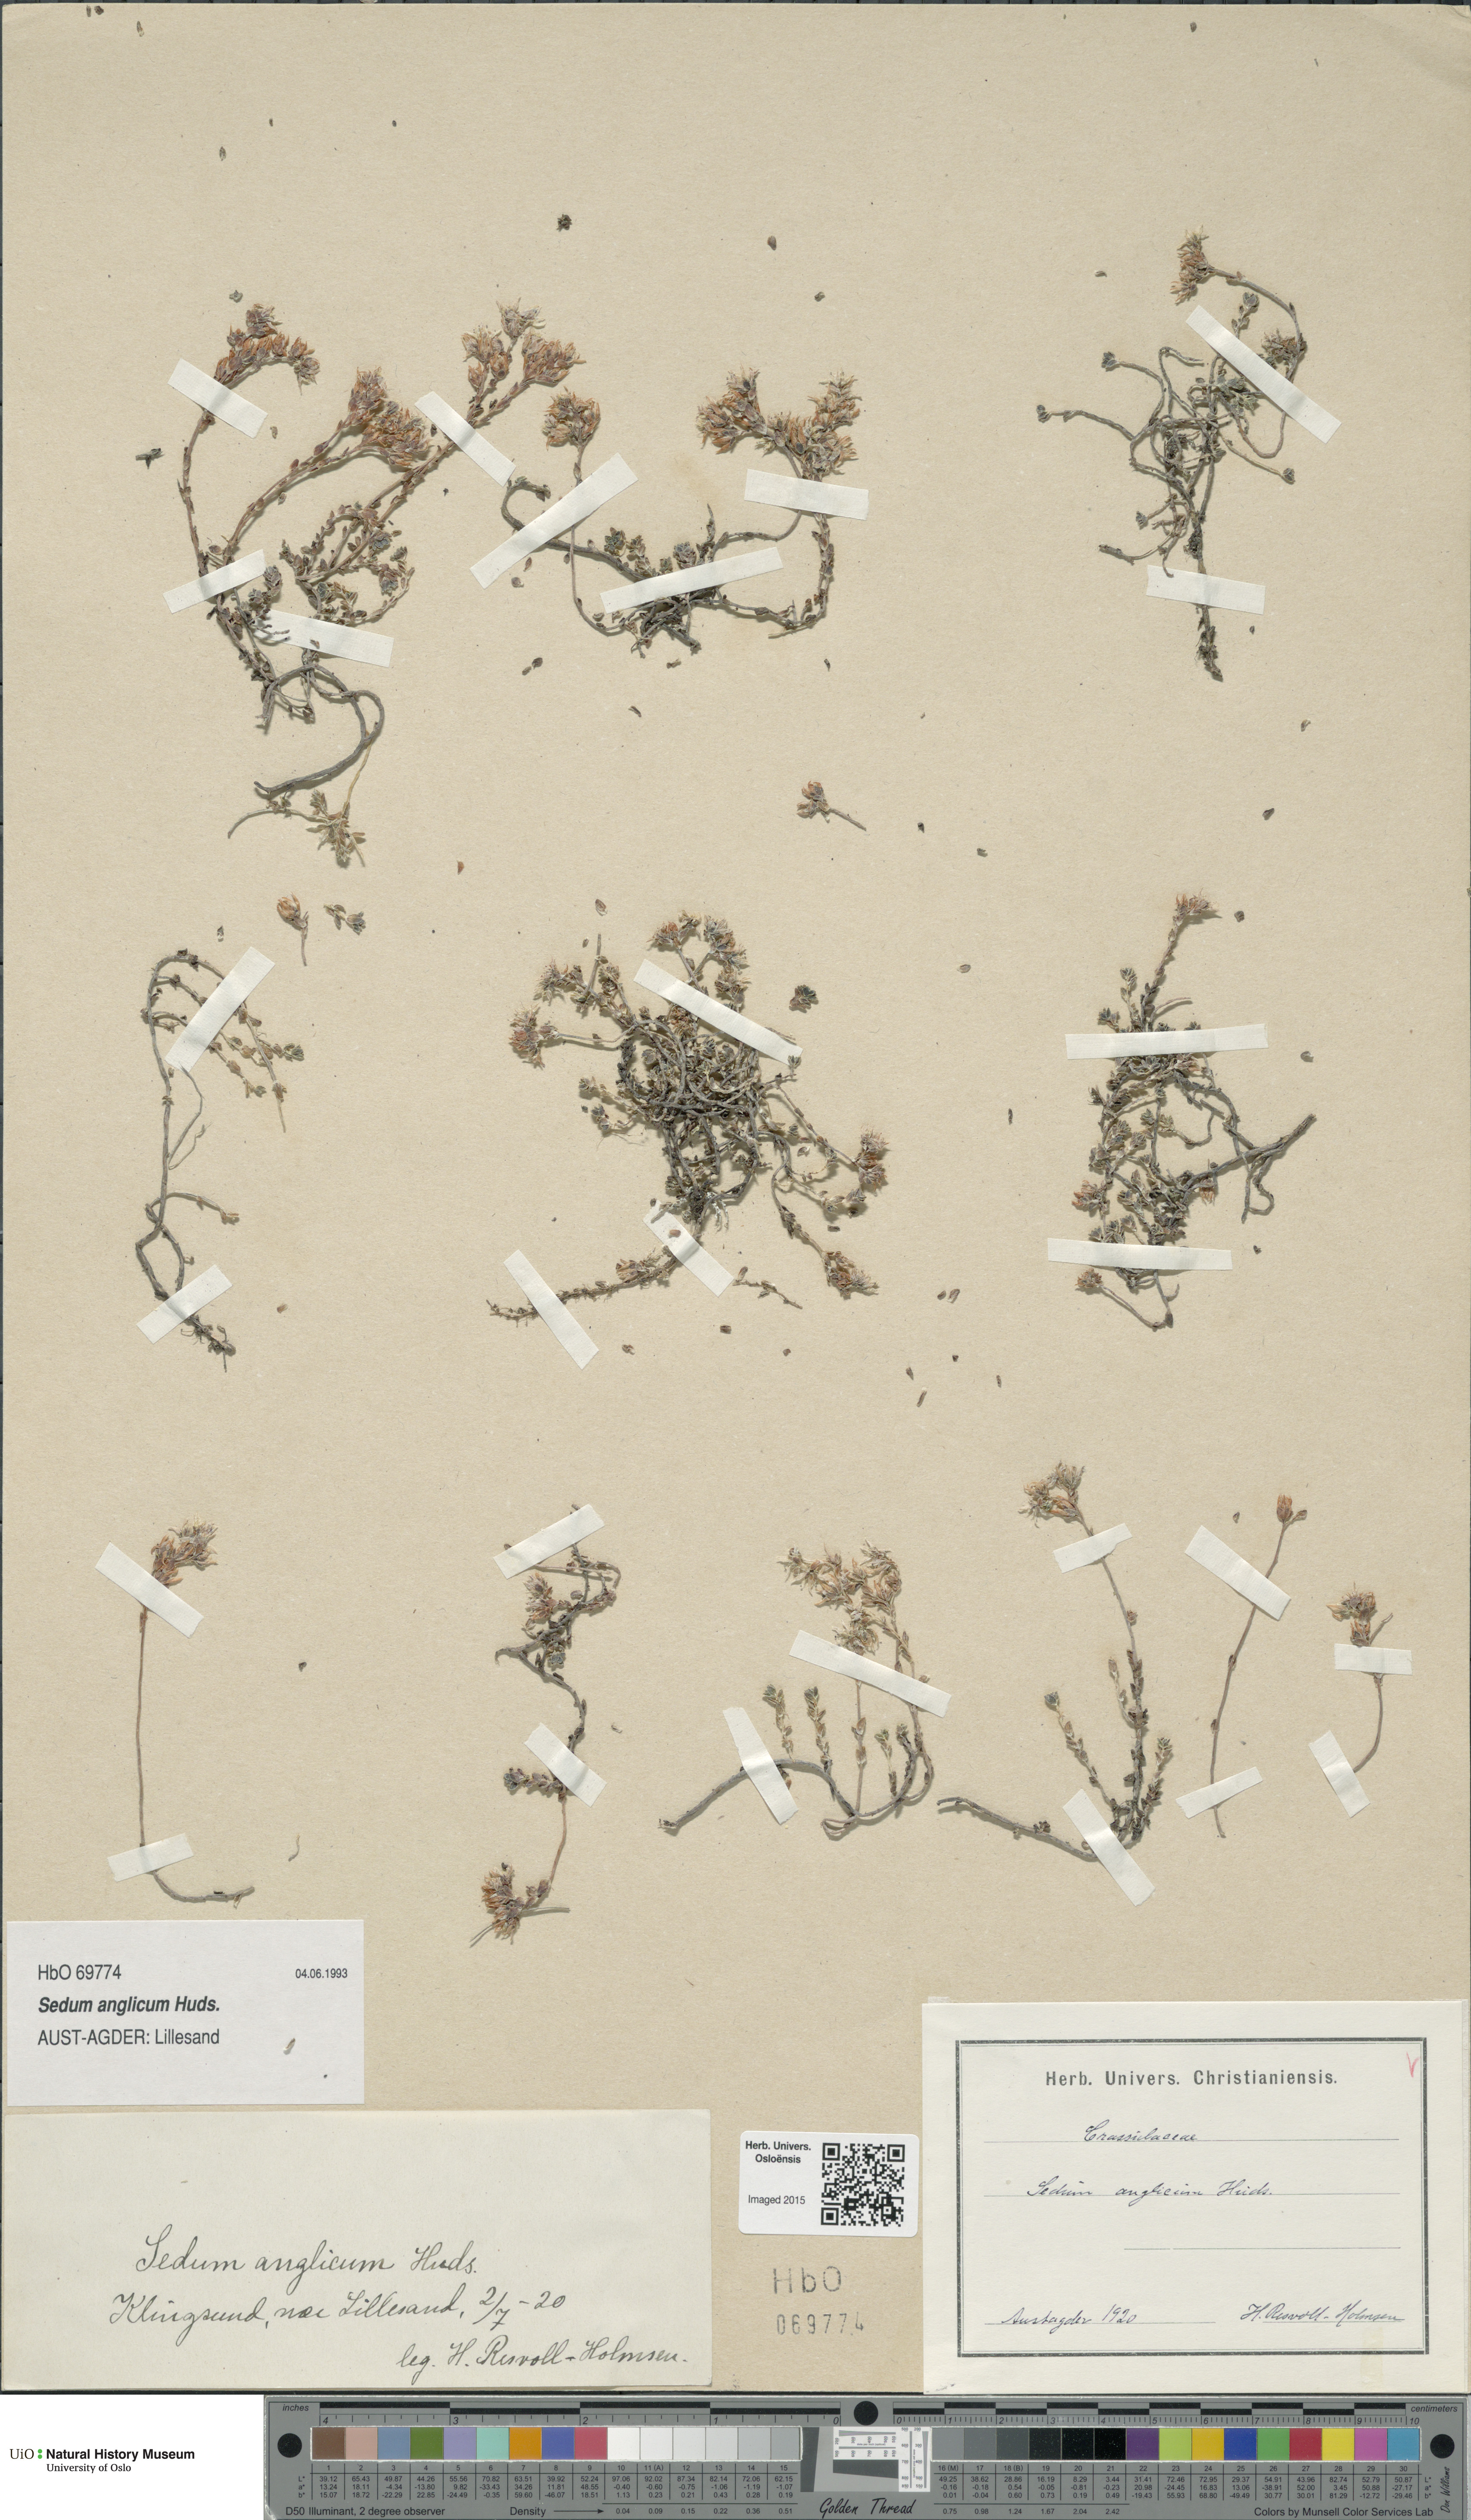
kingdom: Plantae
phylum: Tracheophyta
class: Magnoliopsida
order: Saxifragales
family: Crassulaceae
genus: Sedum
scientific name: Sedum anglicum
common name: English stonecrop
